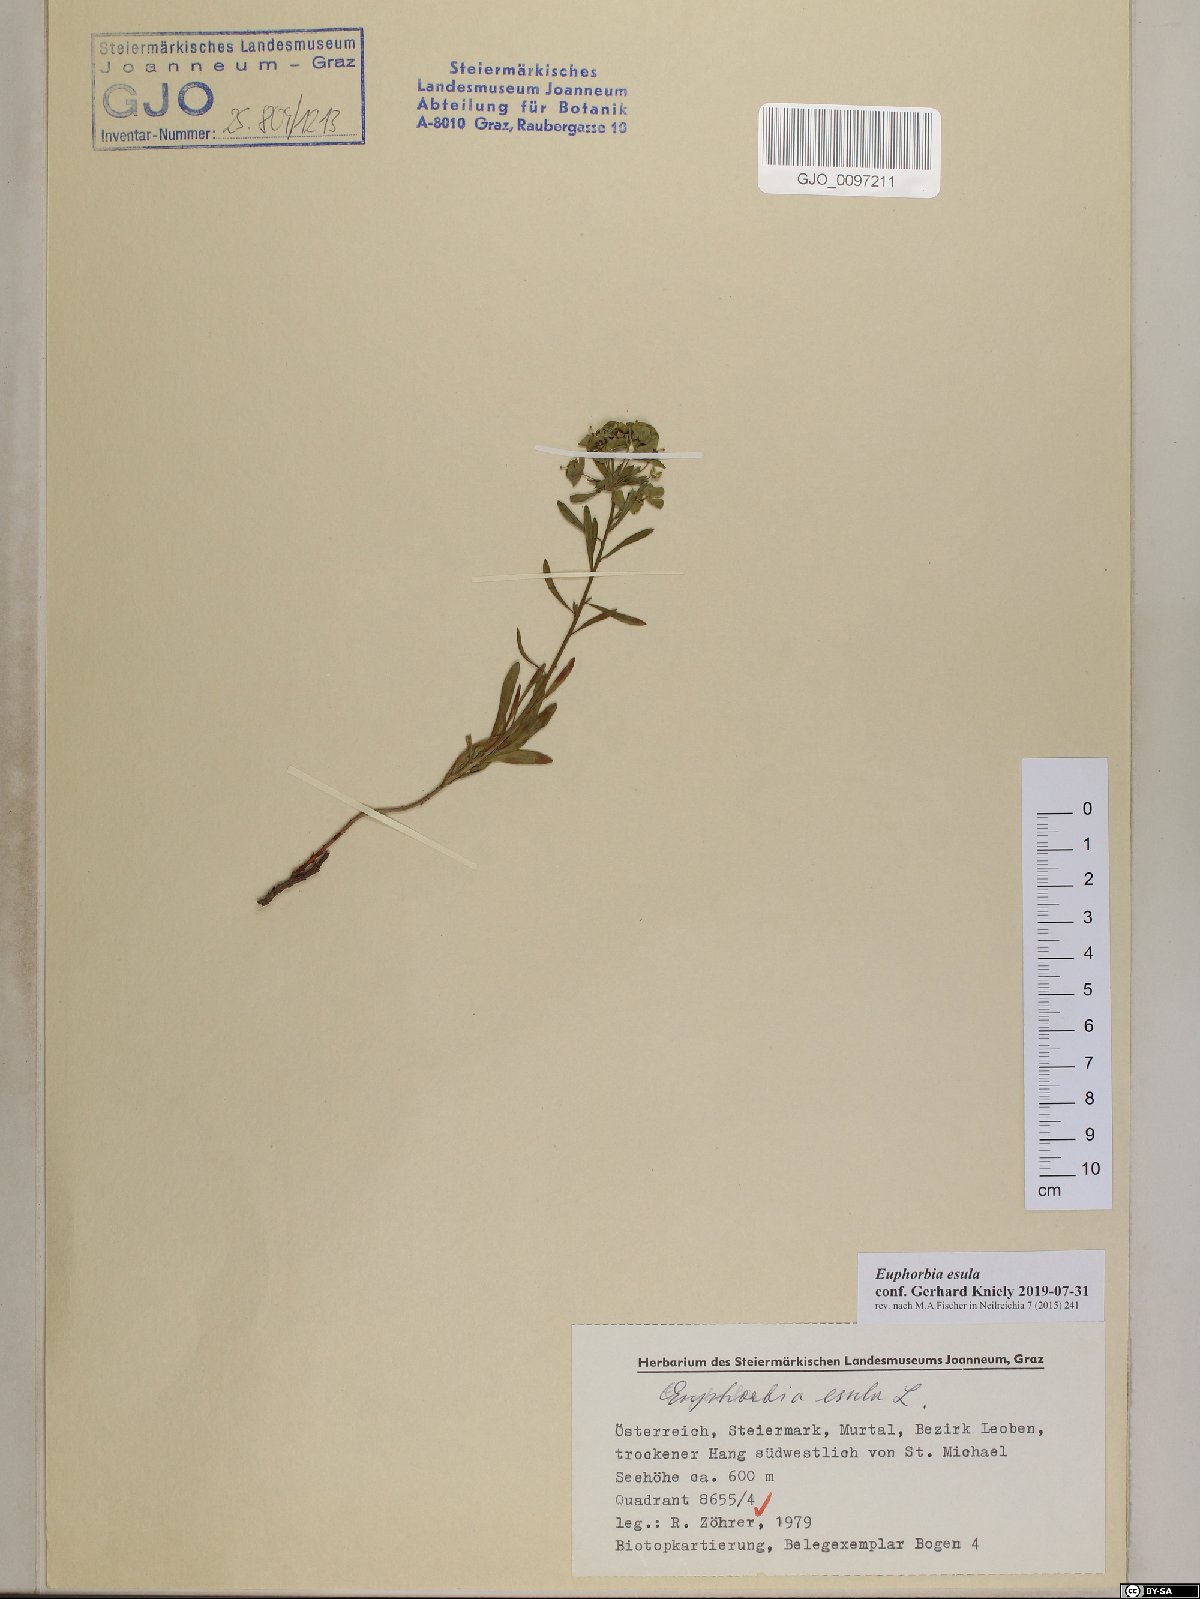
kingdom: Plantae
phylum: Tracheophyta
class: Magnoliopsida
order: Malpighiales
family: Euphorbiaceae
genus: Euphorbia
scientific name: Euphorbia esula
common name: Leafy spurge
